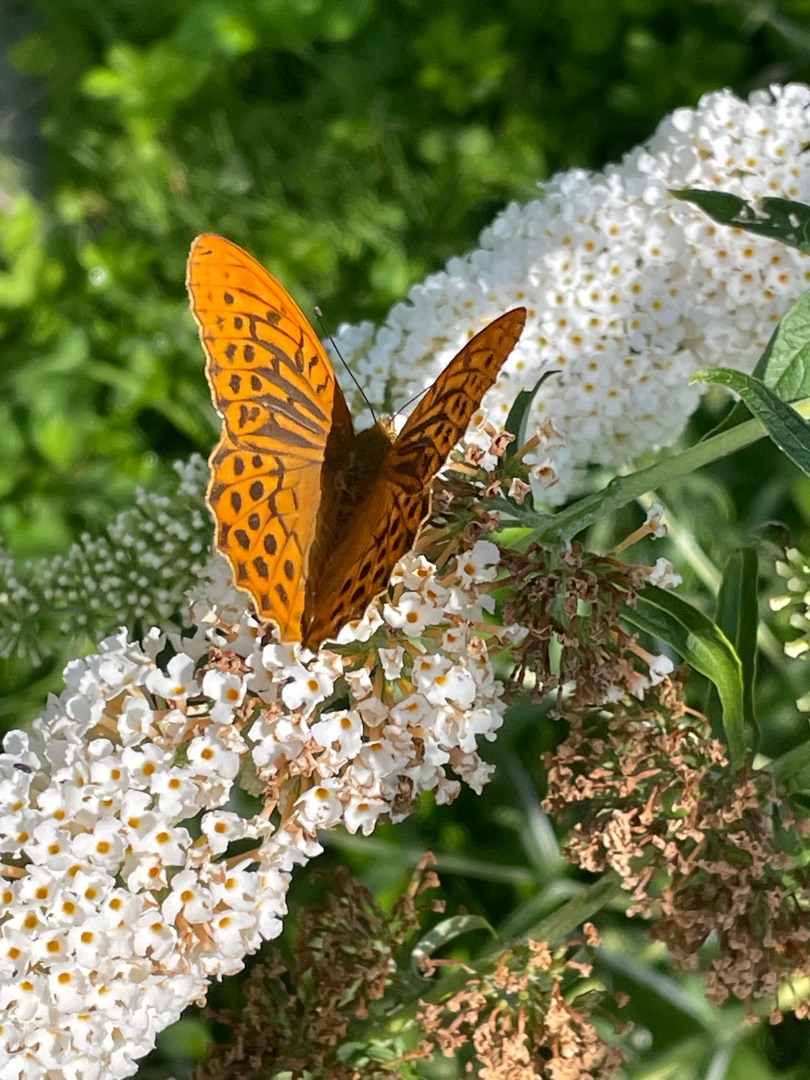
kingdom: Animalia
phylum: Arthropoda
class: Insecta
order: Lepidoptera
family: Nymphalidae
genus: Argynnis
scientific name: Argynnis paphia
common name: Kejserkåbe
